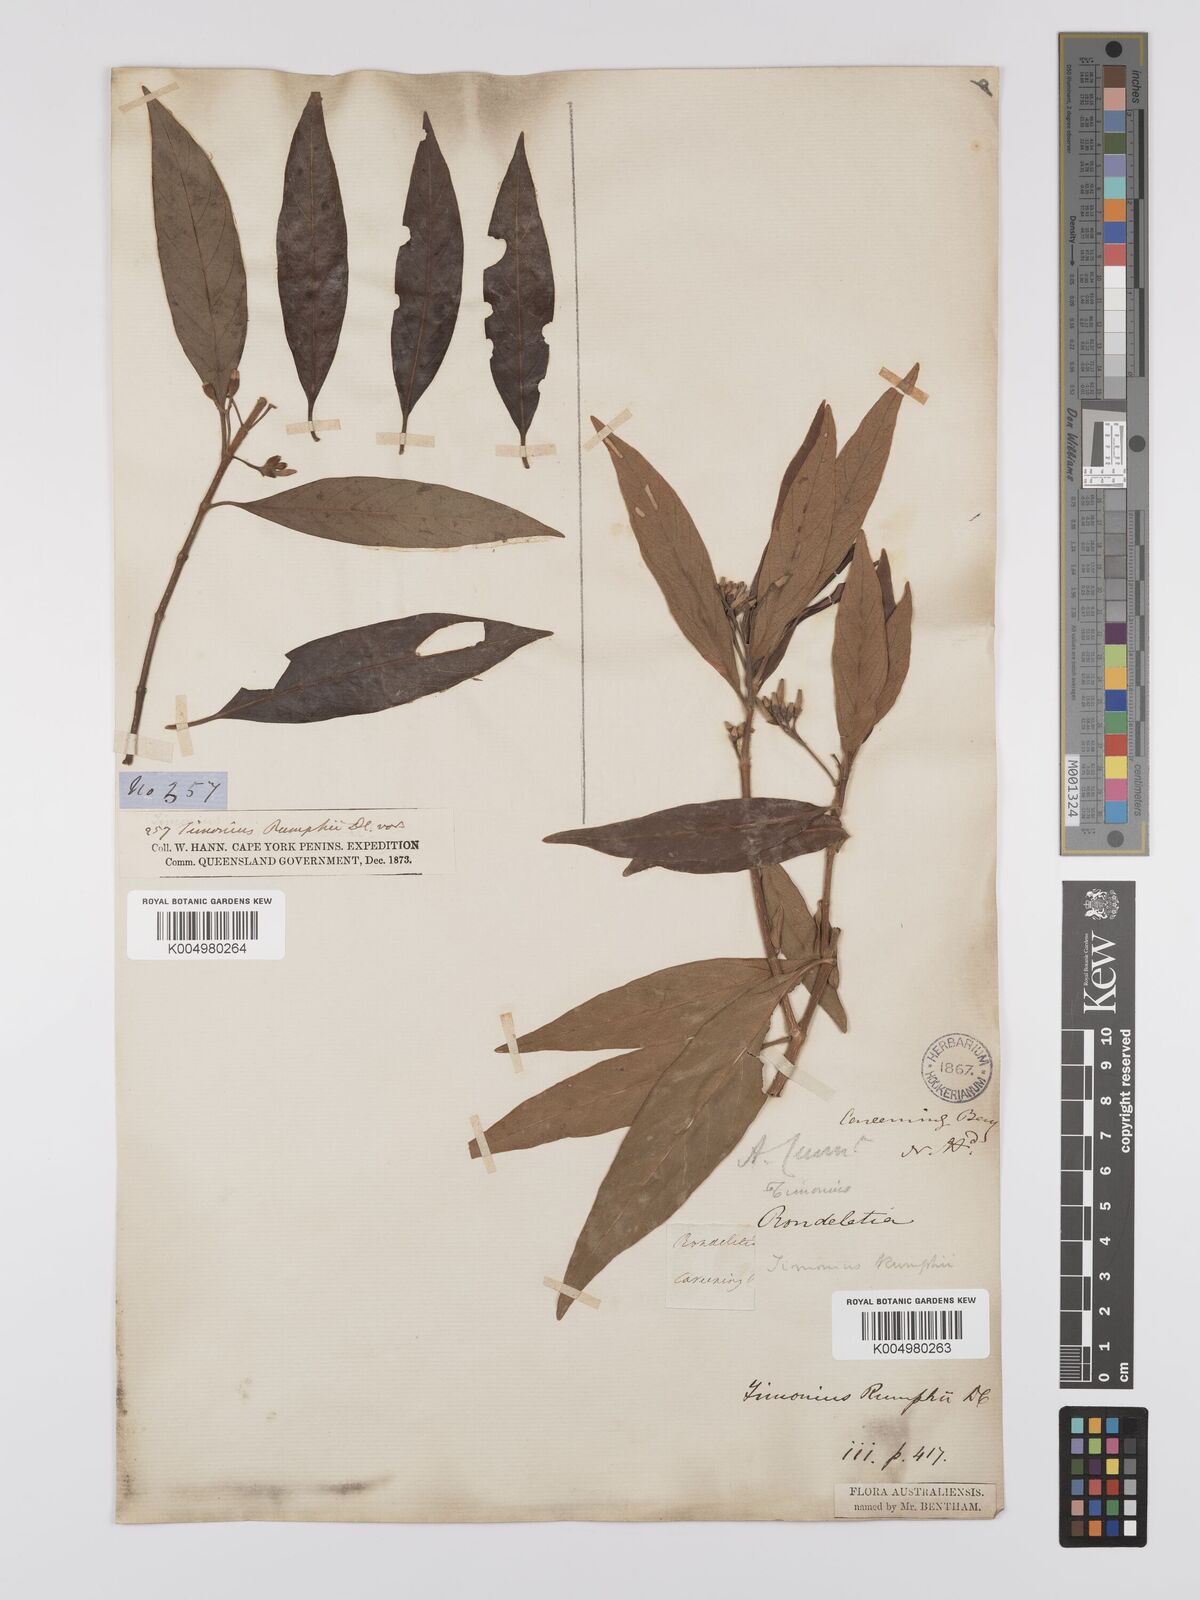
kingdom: Plantae
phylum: Tracheophyta
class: Magnoliopsida
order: Gentianales
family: Rubiaceae
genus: Timonius
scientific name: Timonius timon
